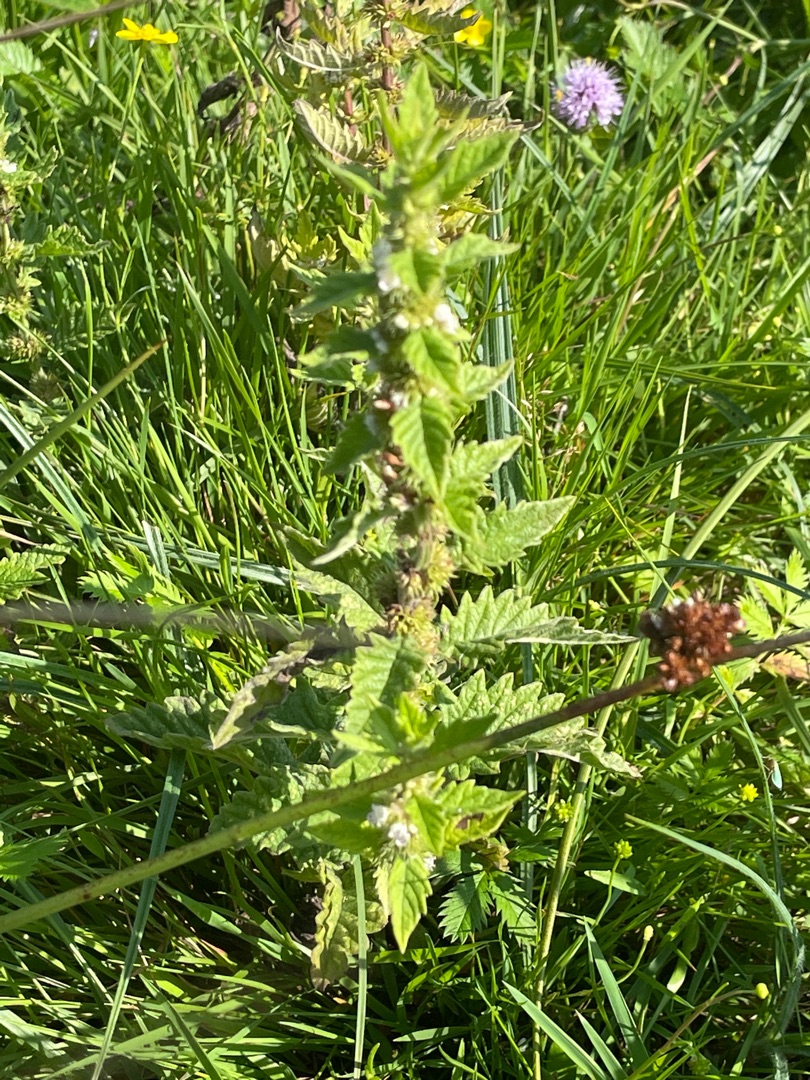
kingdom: Plantae
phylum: Tracheophyta
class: Magnoliopsida
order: Lamiales
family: Lamiaceae
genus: Lycopus
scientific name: Lycopus europaeus
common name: Sværtevæld
